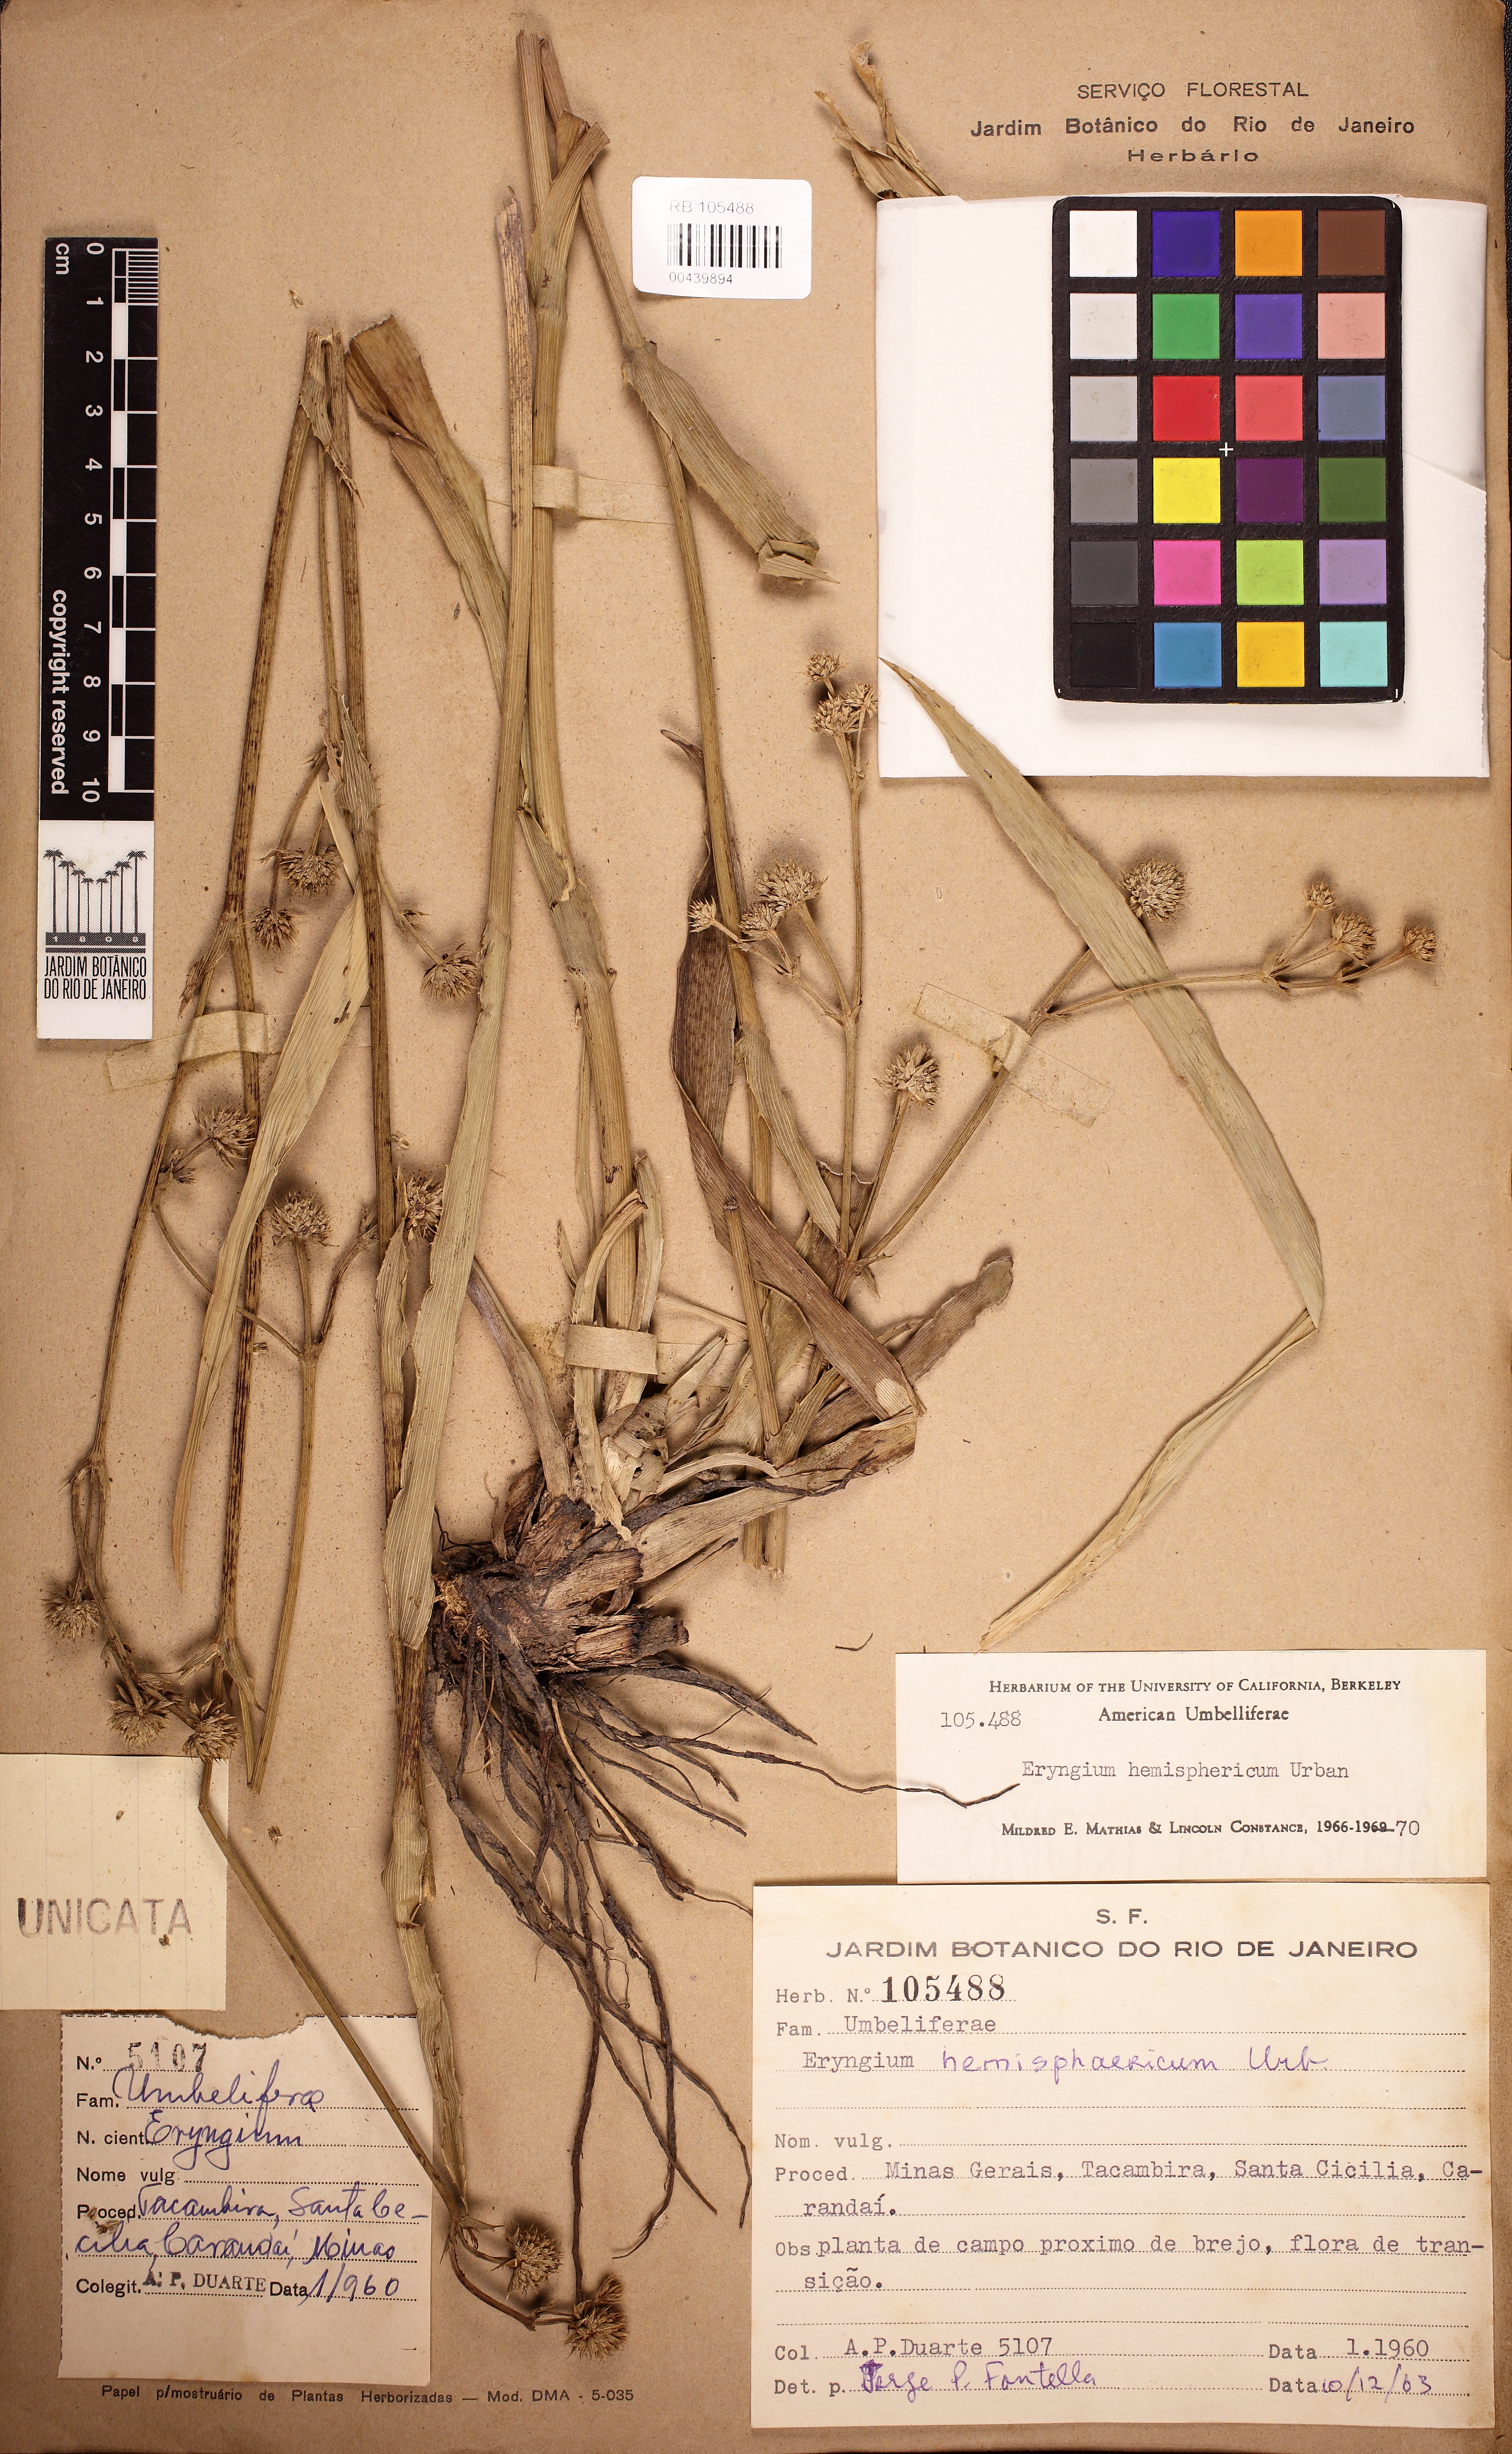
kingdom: Plantae
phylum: Tracheophyta
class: Magnoliopsida
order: Apiales
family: Apiaceae
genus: Eryngium
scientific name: Eryngium hemisphaericum
